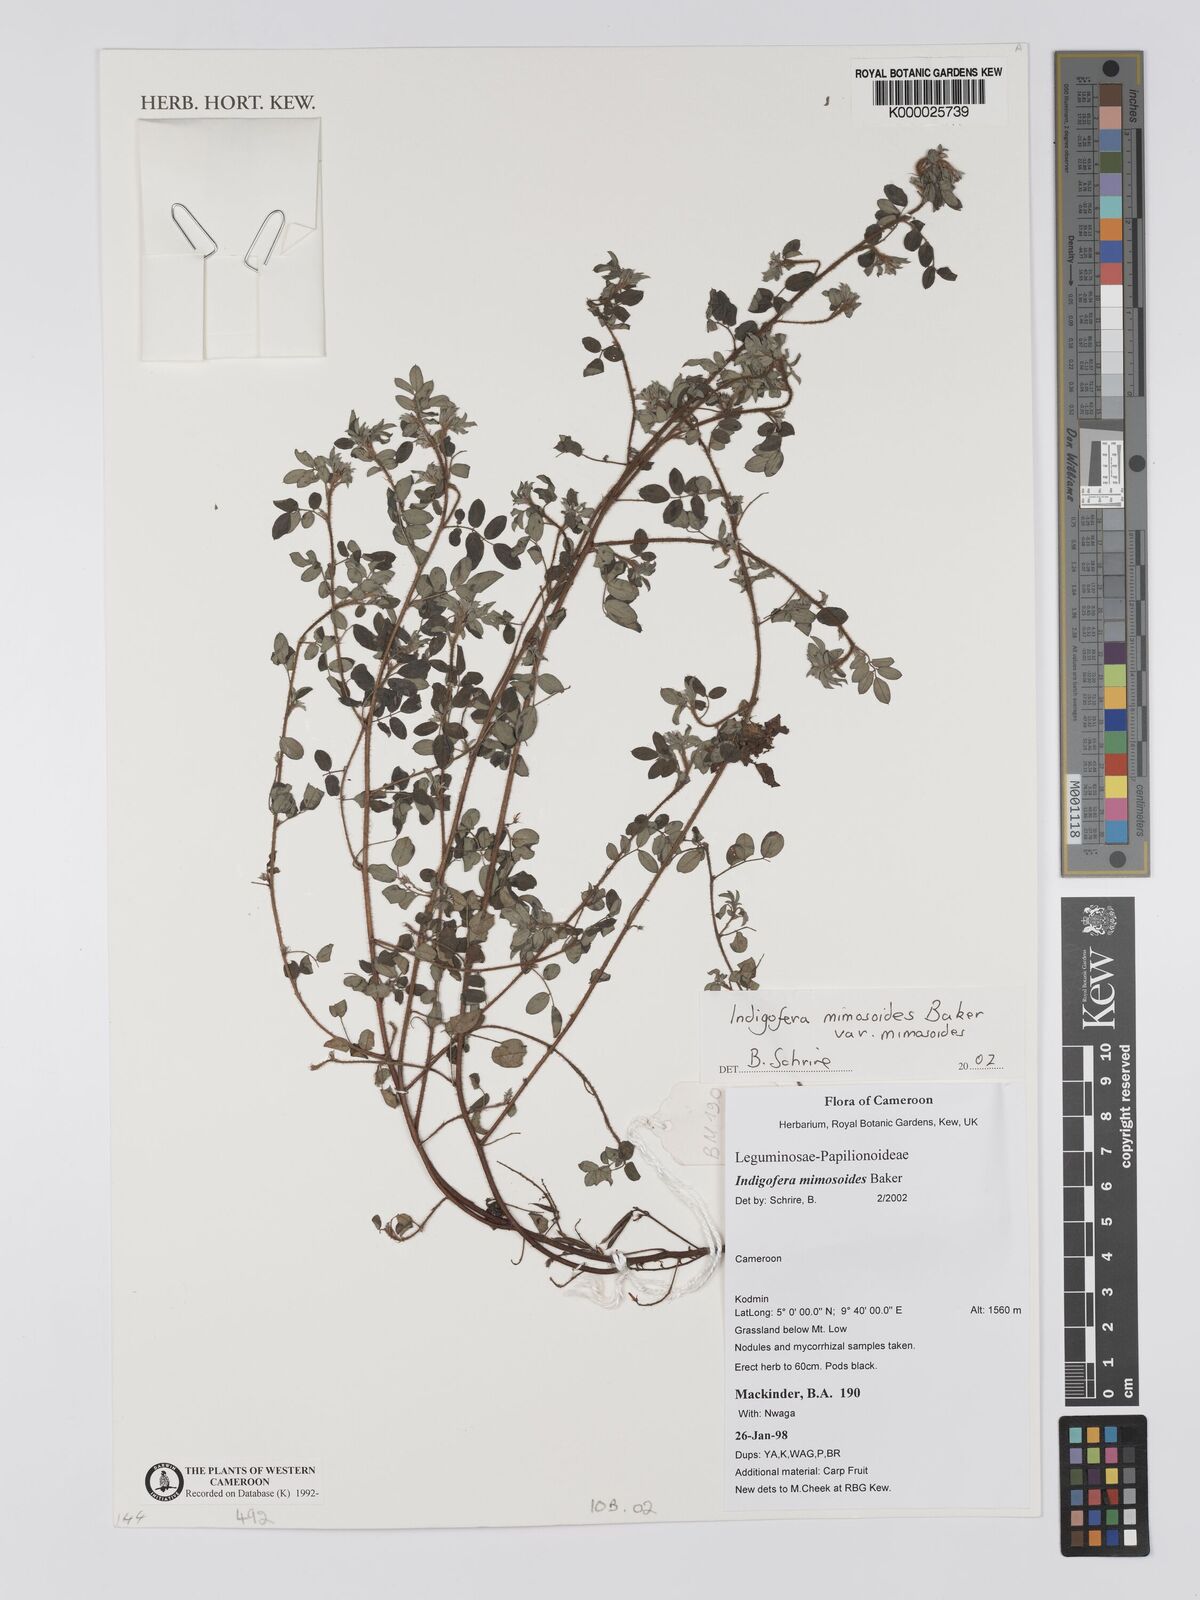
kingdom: Plantae
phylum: Tracheophyta
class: Magnoliopsida
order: Fabales
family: Fabaceae
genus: Indigofera
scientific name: Indigofera mimosoides
